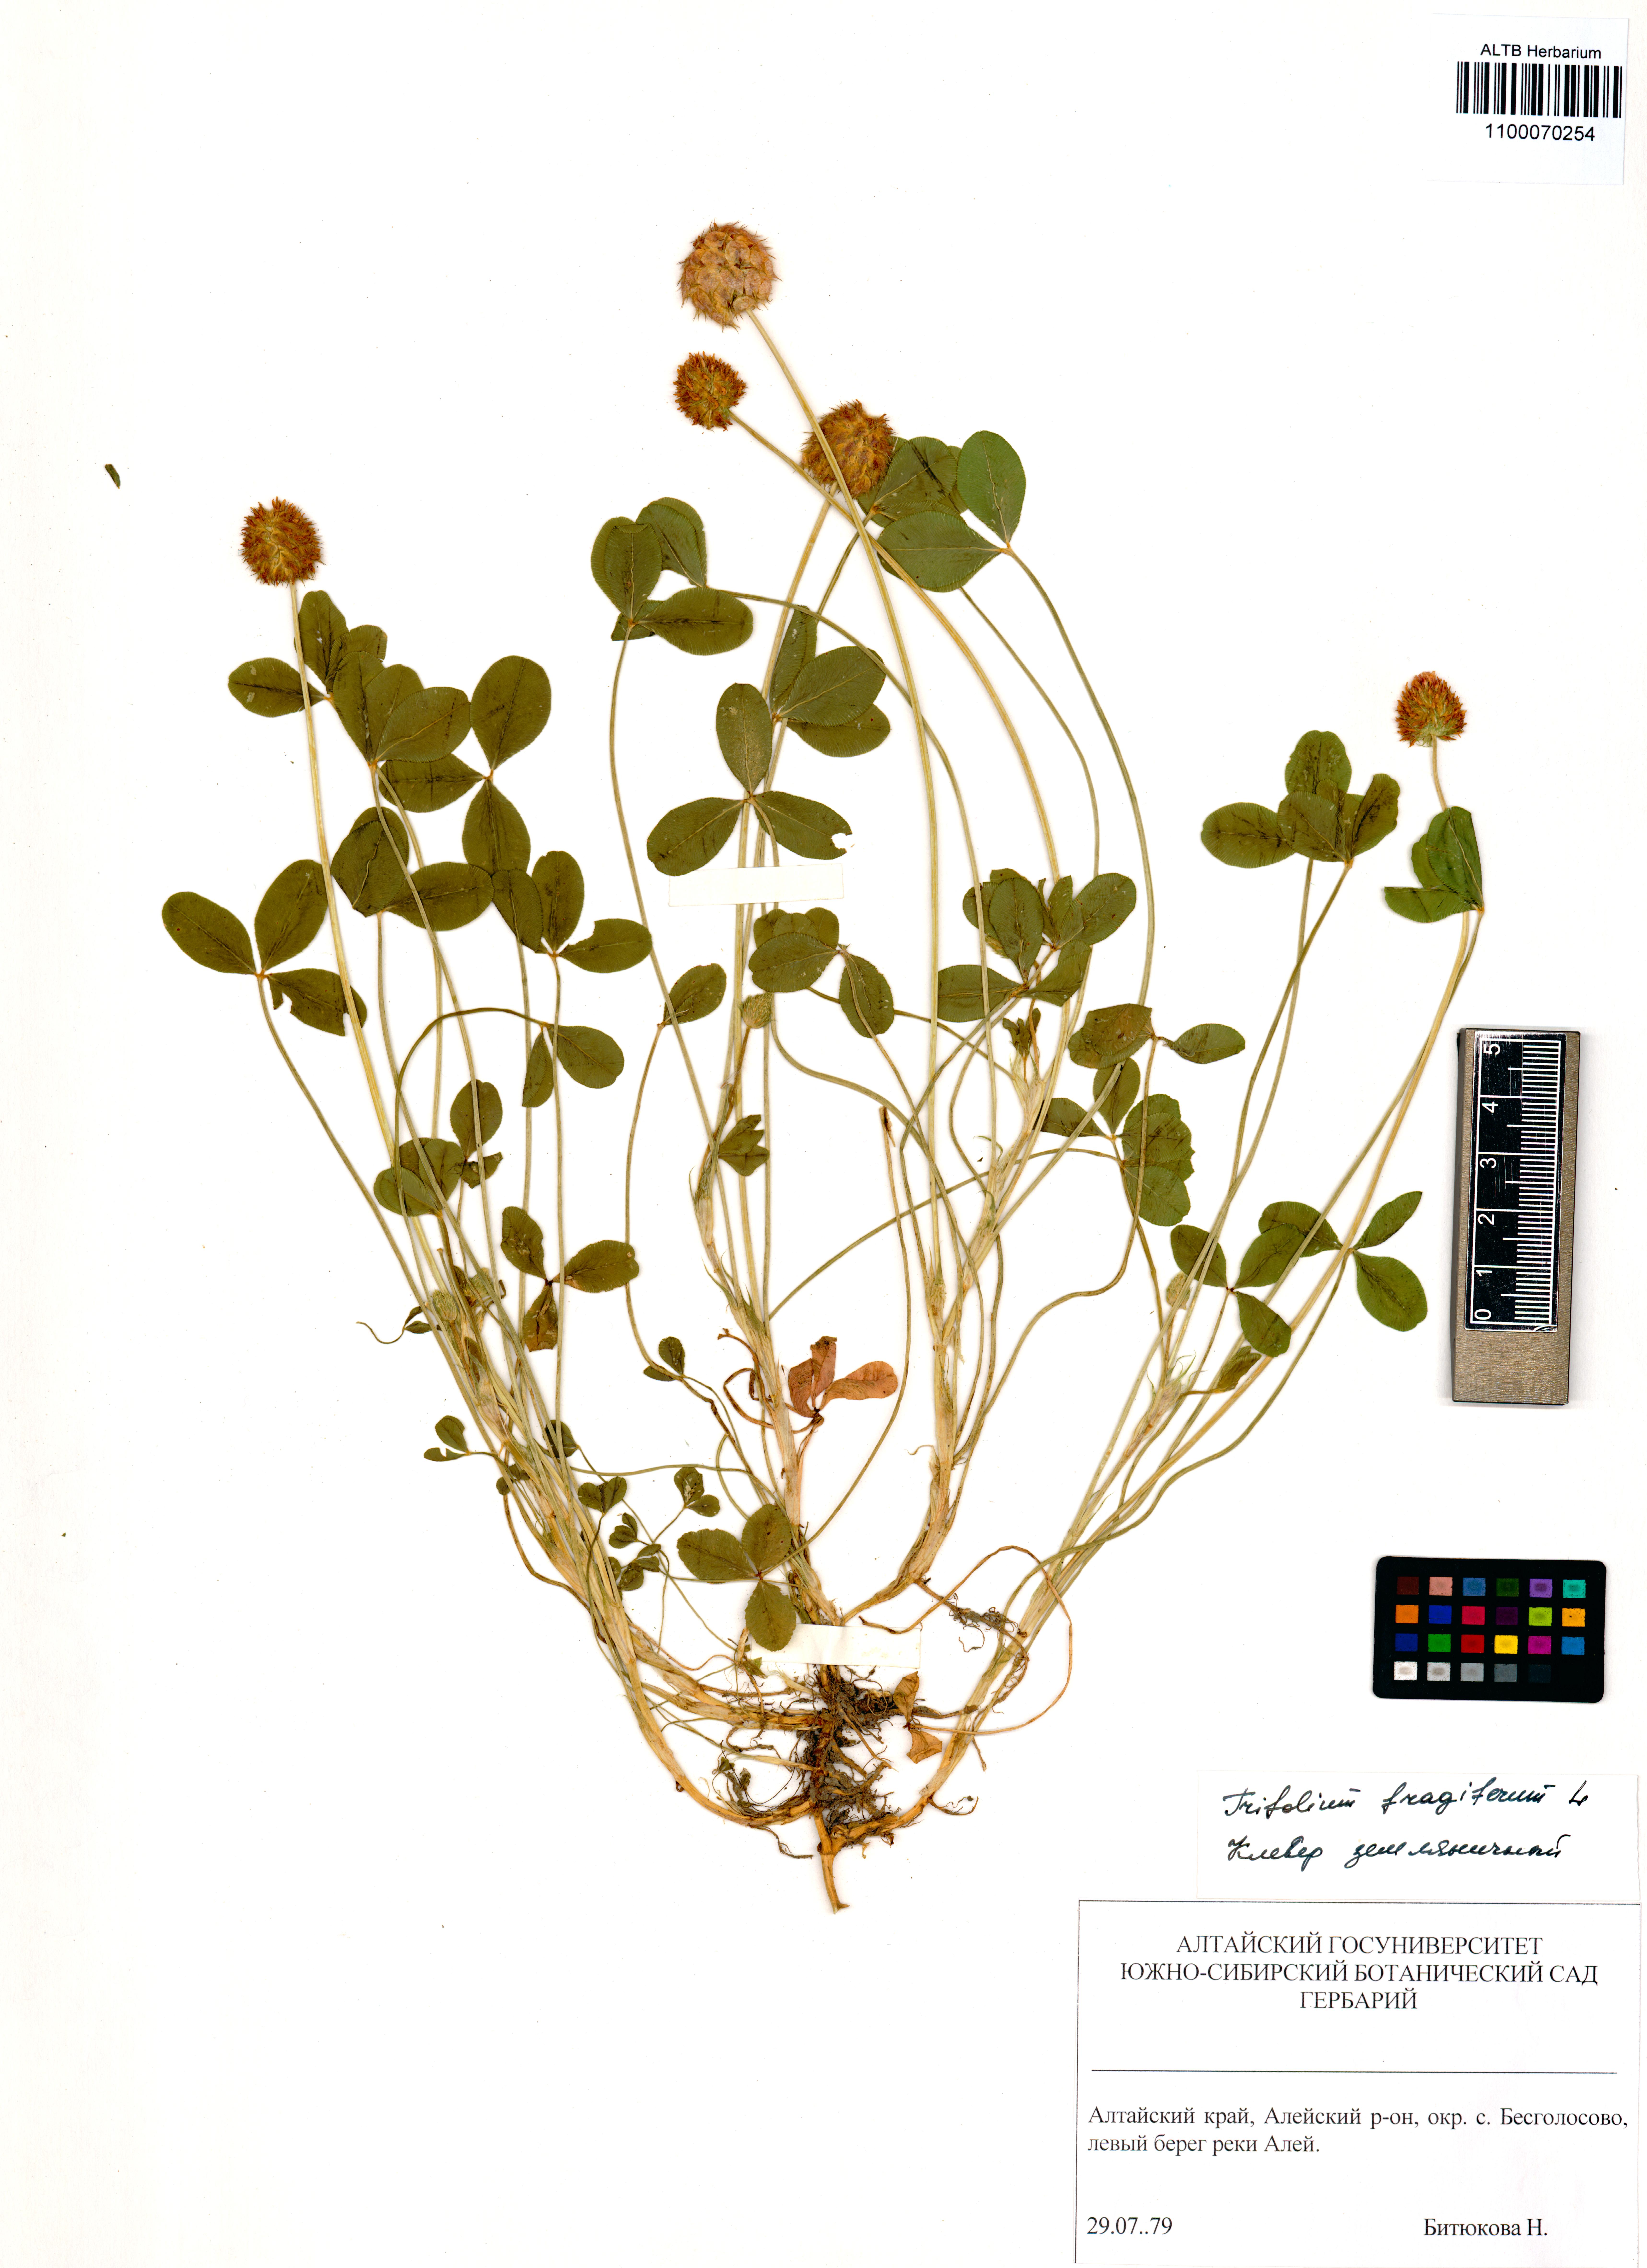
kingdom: Plantae
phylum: Tracheophyta
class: Magnoliopsida
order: Fabales
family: Fabaceae
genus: Trifolium
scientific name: Trifolium fragiferum
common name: Strawberry clover
